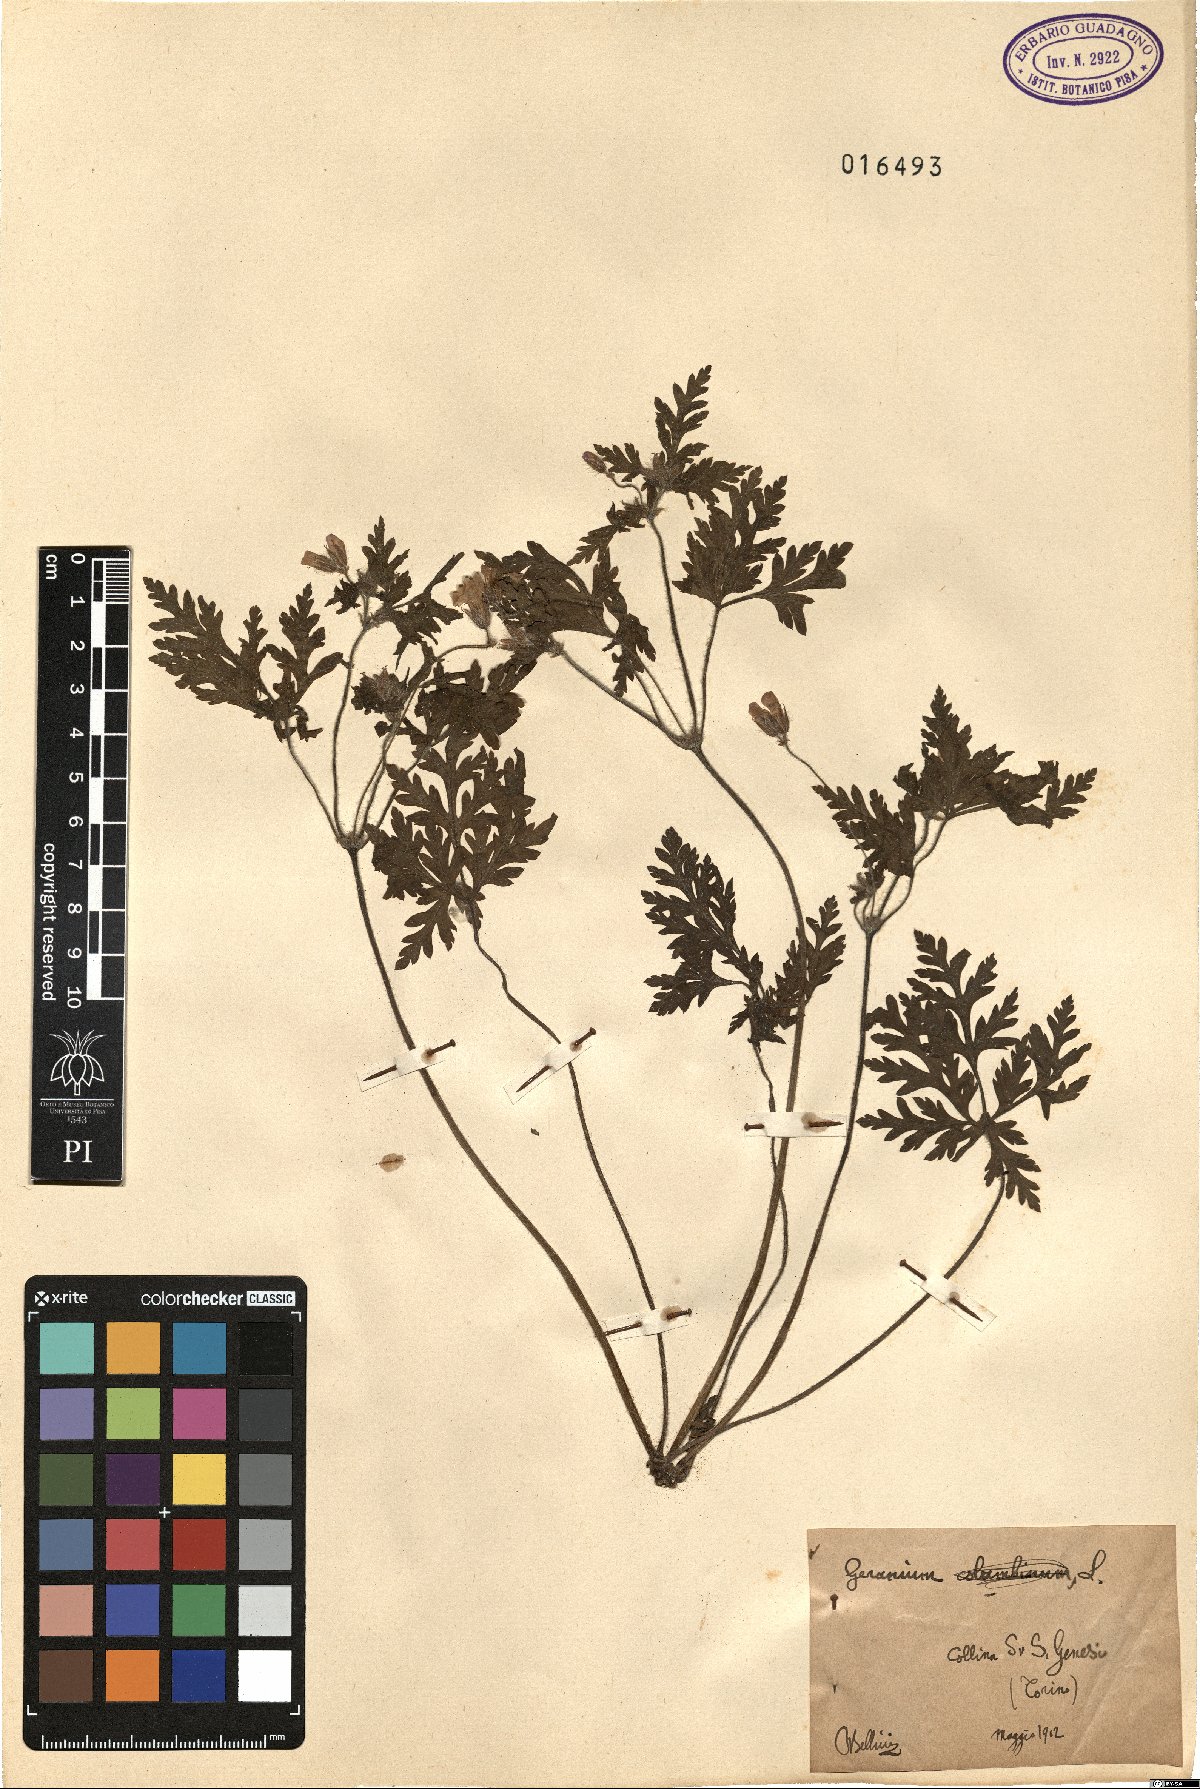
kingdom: Plantae
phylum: Tracheophyta
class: Magnoliopsida
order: Geraniales
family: Geraniaceae
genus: Geranium
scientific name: Geranium
